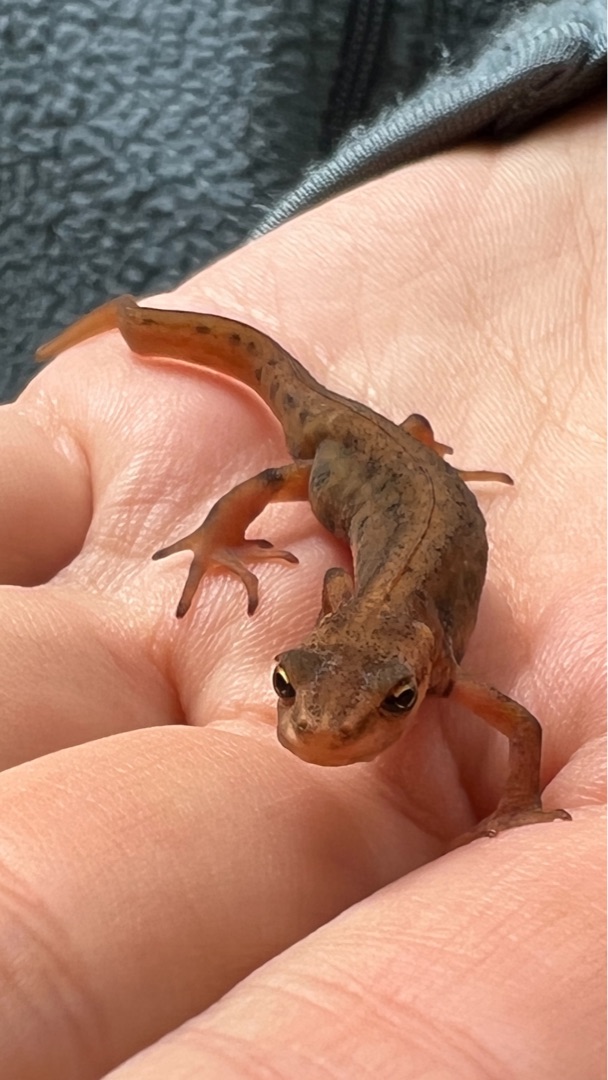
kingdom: Animalia
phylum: Chordata
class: Amphibia
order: Caudata
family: Salamandridae
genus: Lissotriton
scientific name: Lissotriton vulgaris
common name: Lille vandsalamander
